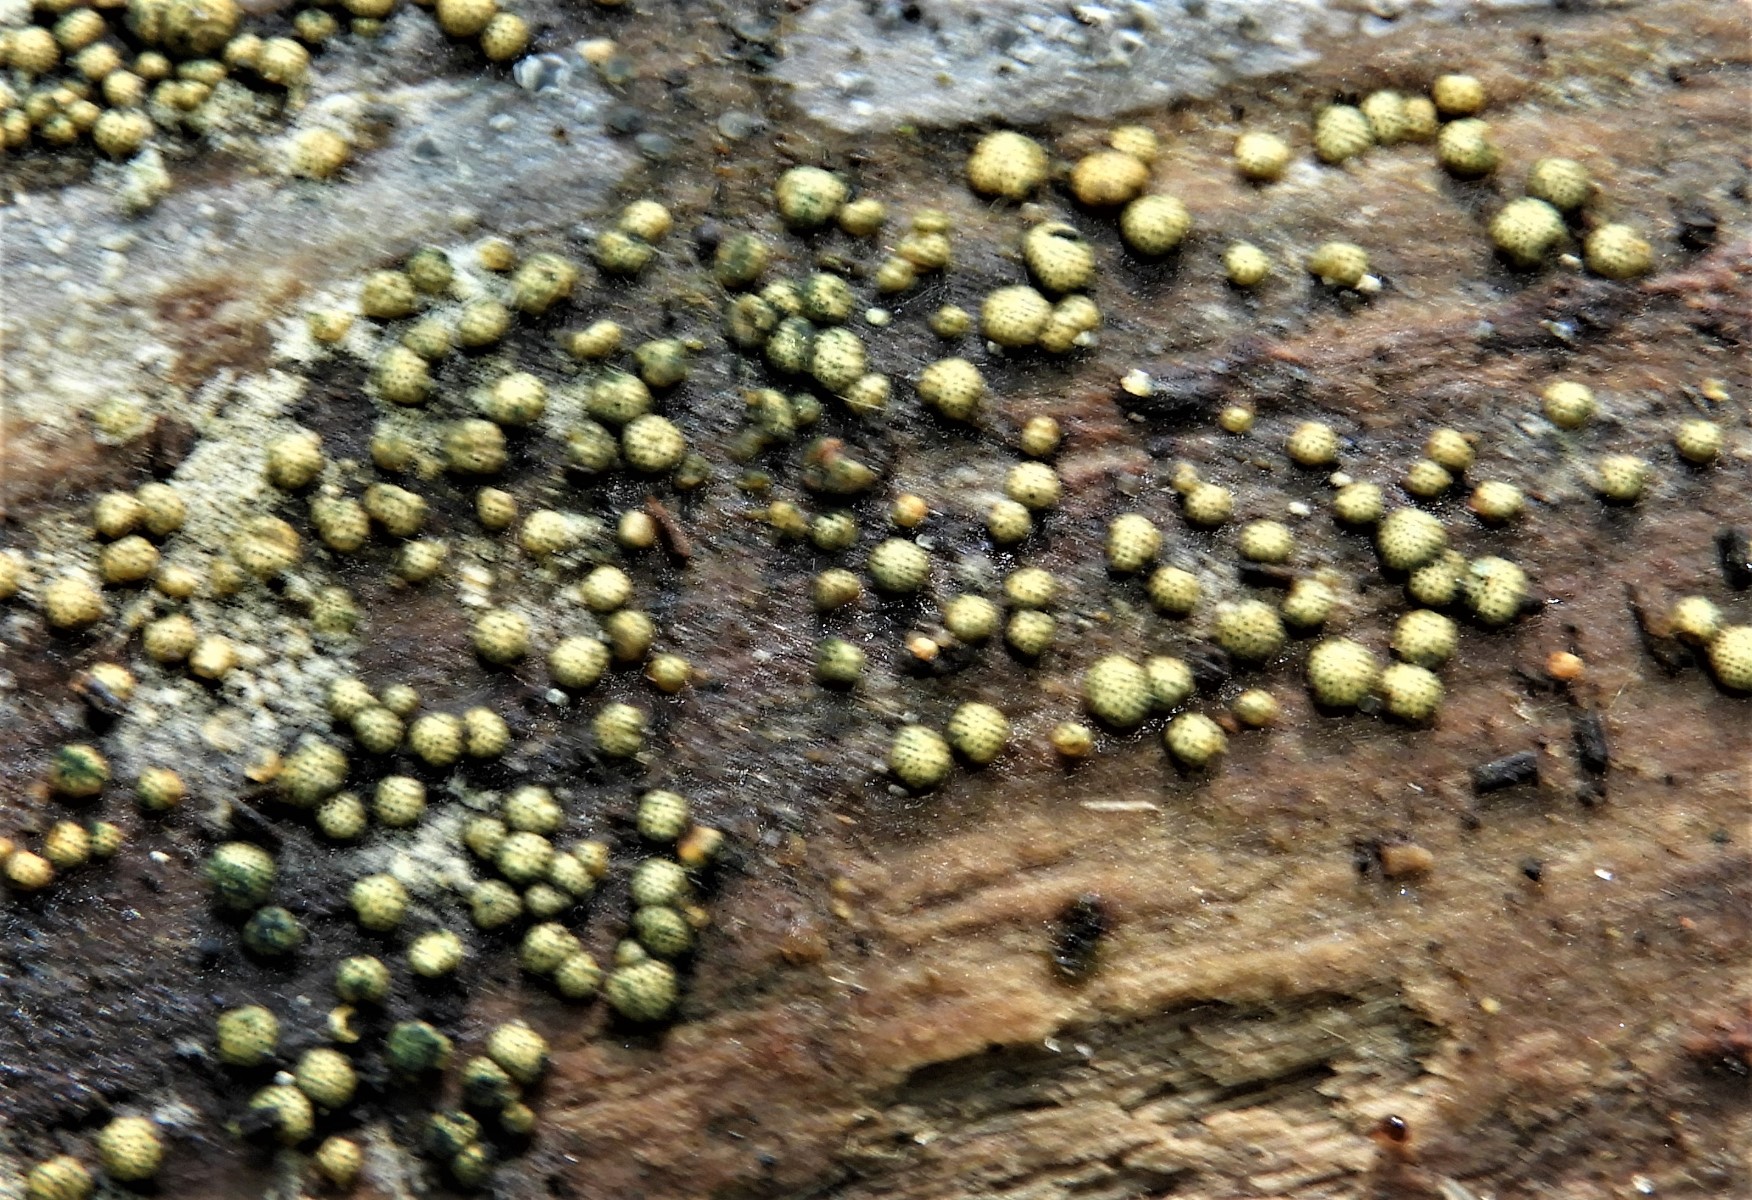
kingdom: Fungi
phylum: Ascomycota
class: Sordariomycetes
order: Hypocreales
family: Hypocreaceae
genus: Trichoderma
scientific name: Trichoderma strictipile
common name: grønprikket kødkerne
